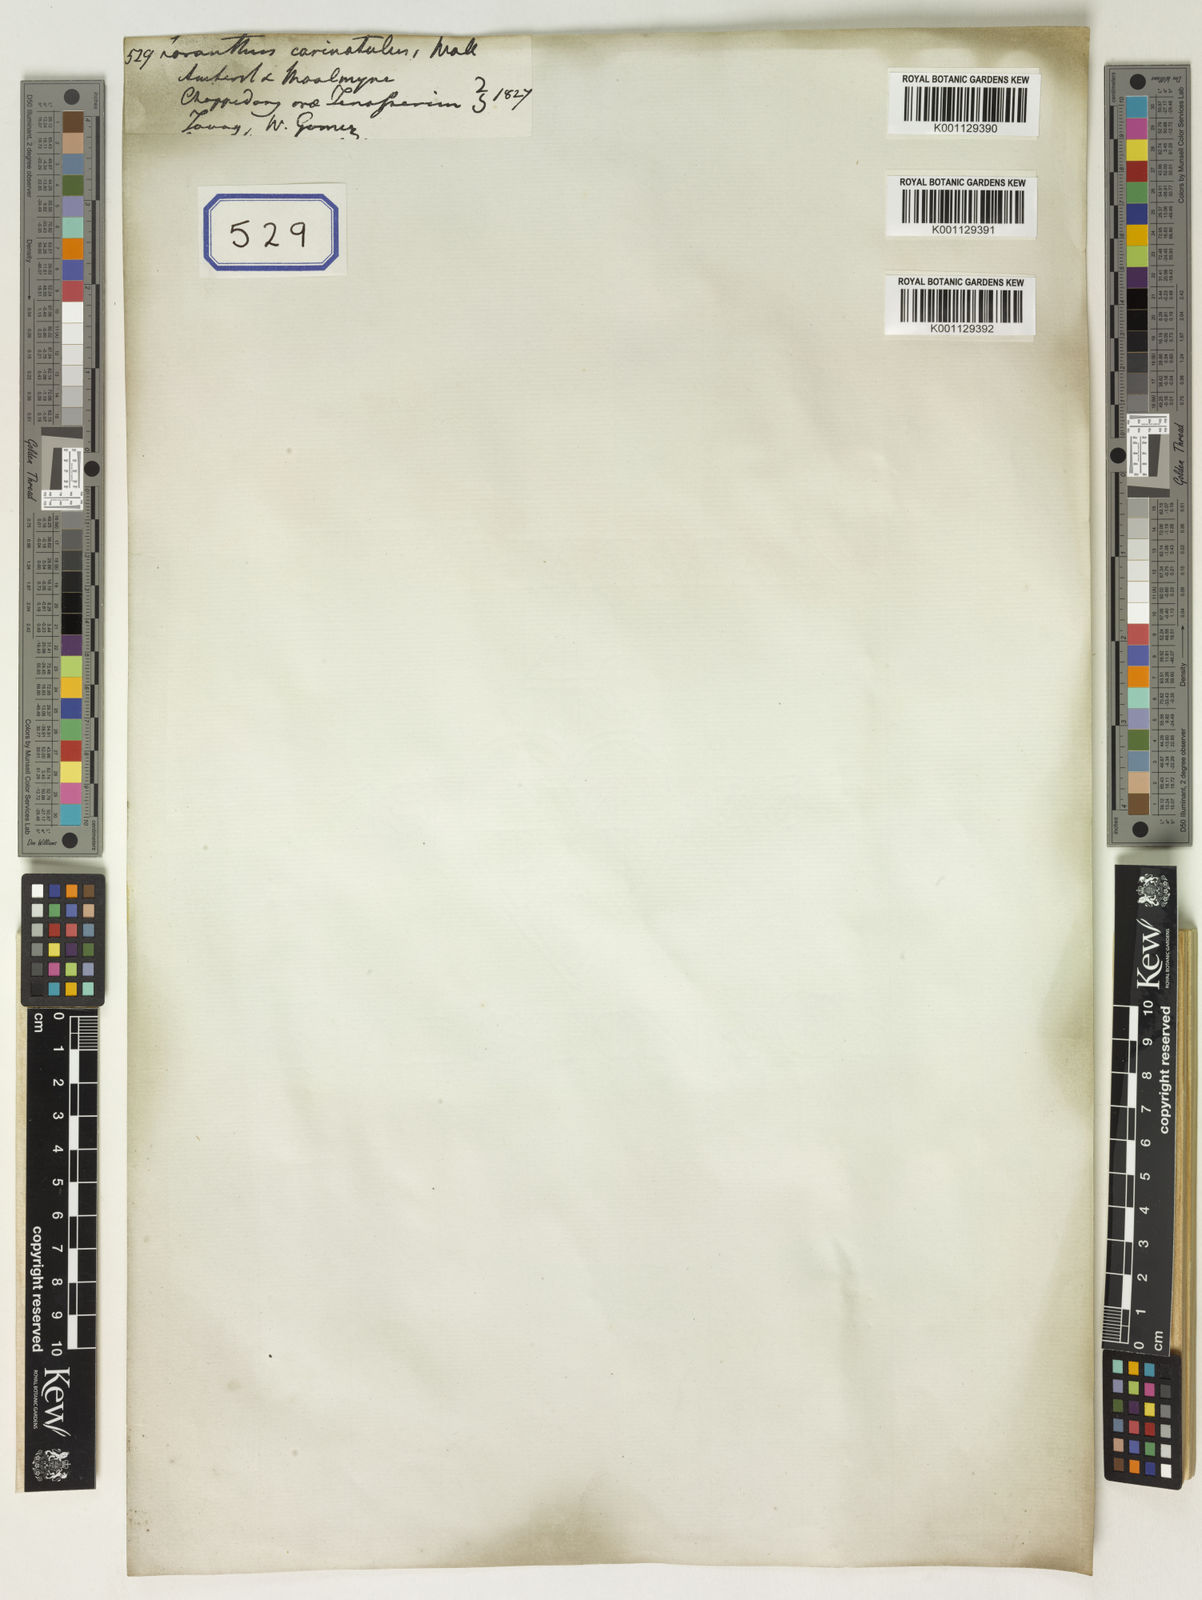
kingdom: Plantae
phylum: Tracheophyta
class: Magnoliopsida
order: Santalales
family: Loranthaceae
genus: Loranthus
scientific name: Loranthus
